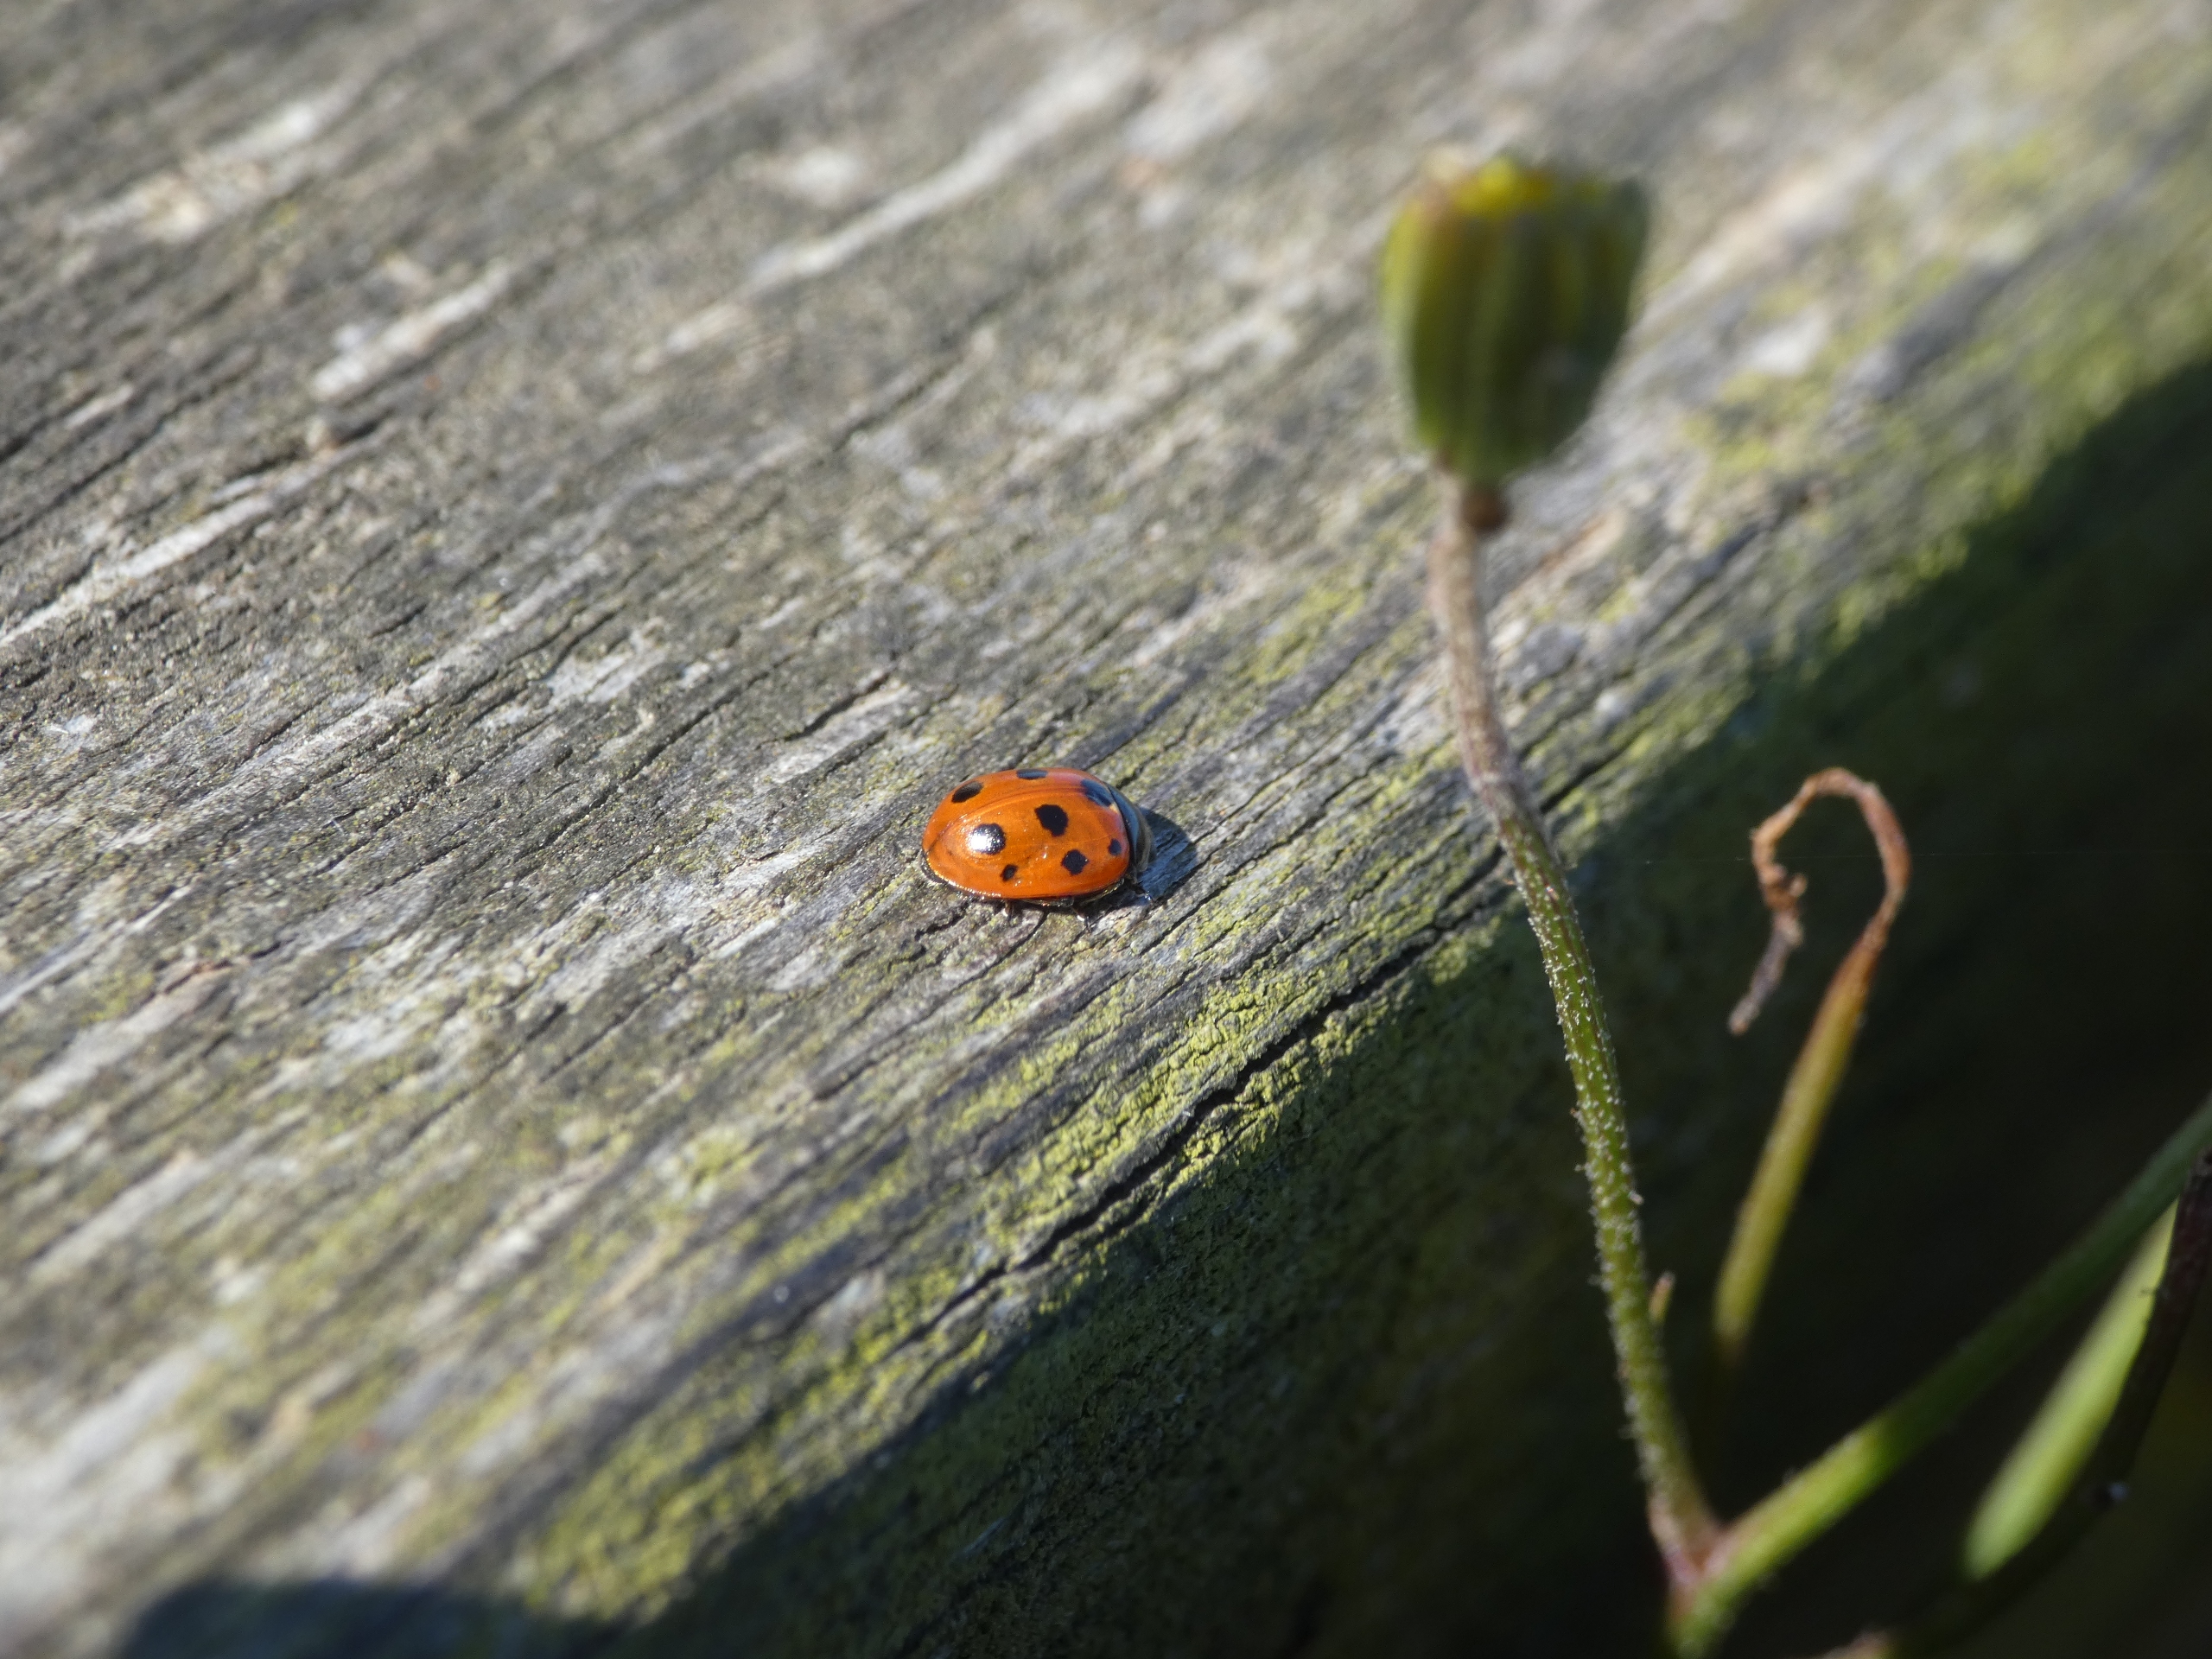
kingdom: Animalia
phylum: Arthropoda
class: Insecta
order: Coleoptera
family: Coccinellidae
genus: Coccinella
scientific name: Coccinella undecimpunctata
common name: Elleveplettet mariehøne
